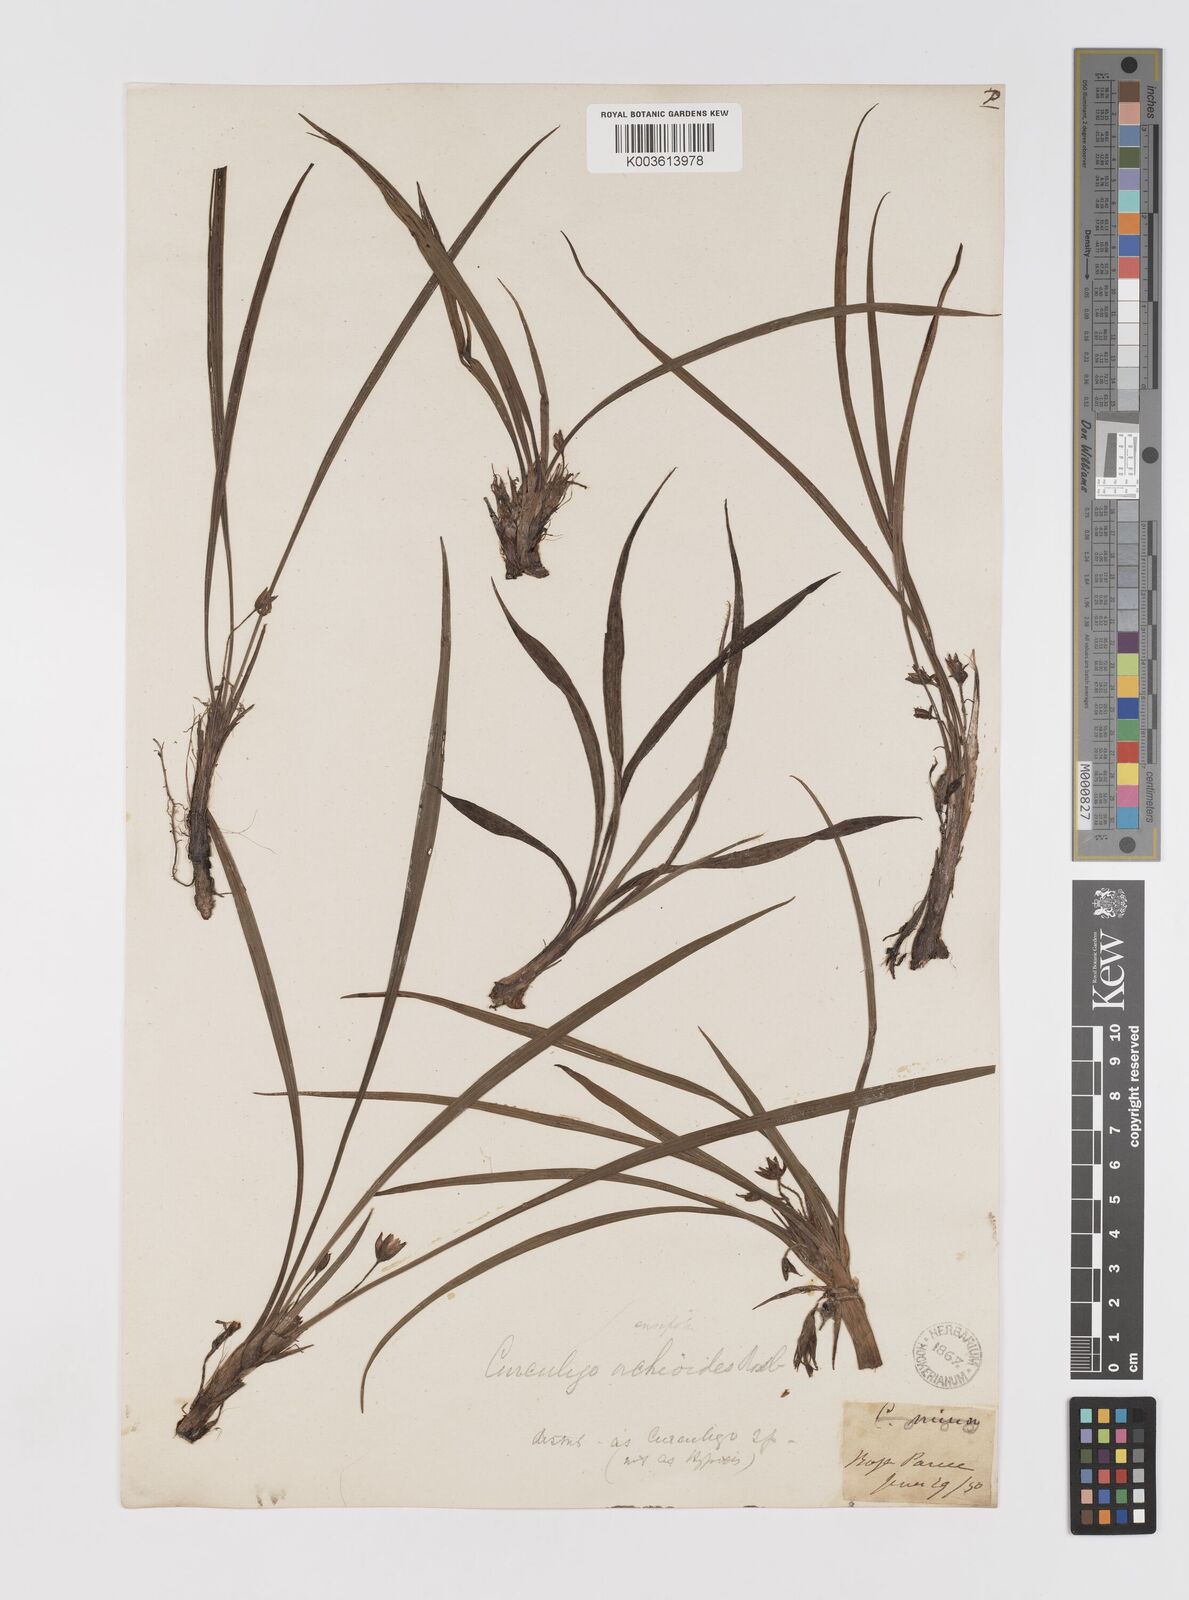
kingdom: Plantae
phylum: Tracheophyta
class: Liliopsida
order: Asparagales
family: Hypoxidaceae
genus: Curculigo
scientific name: Curculigo orchioides
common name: Golden eye-grass
